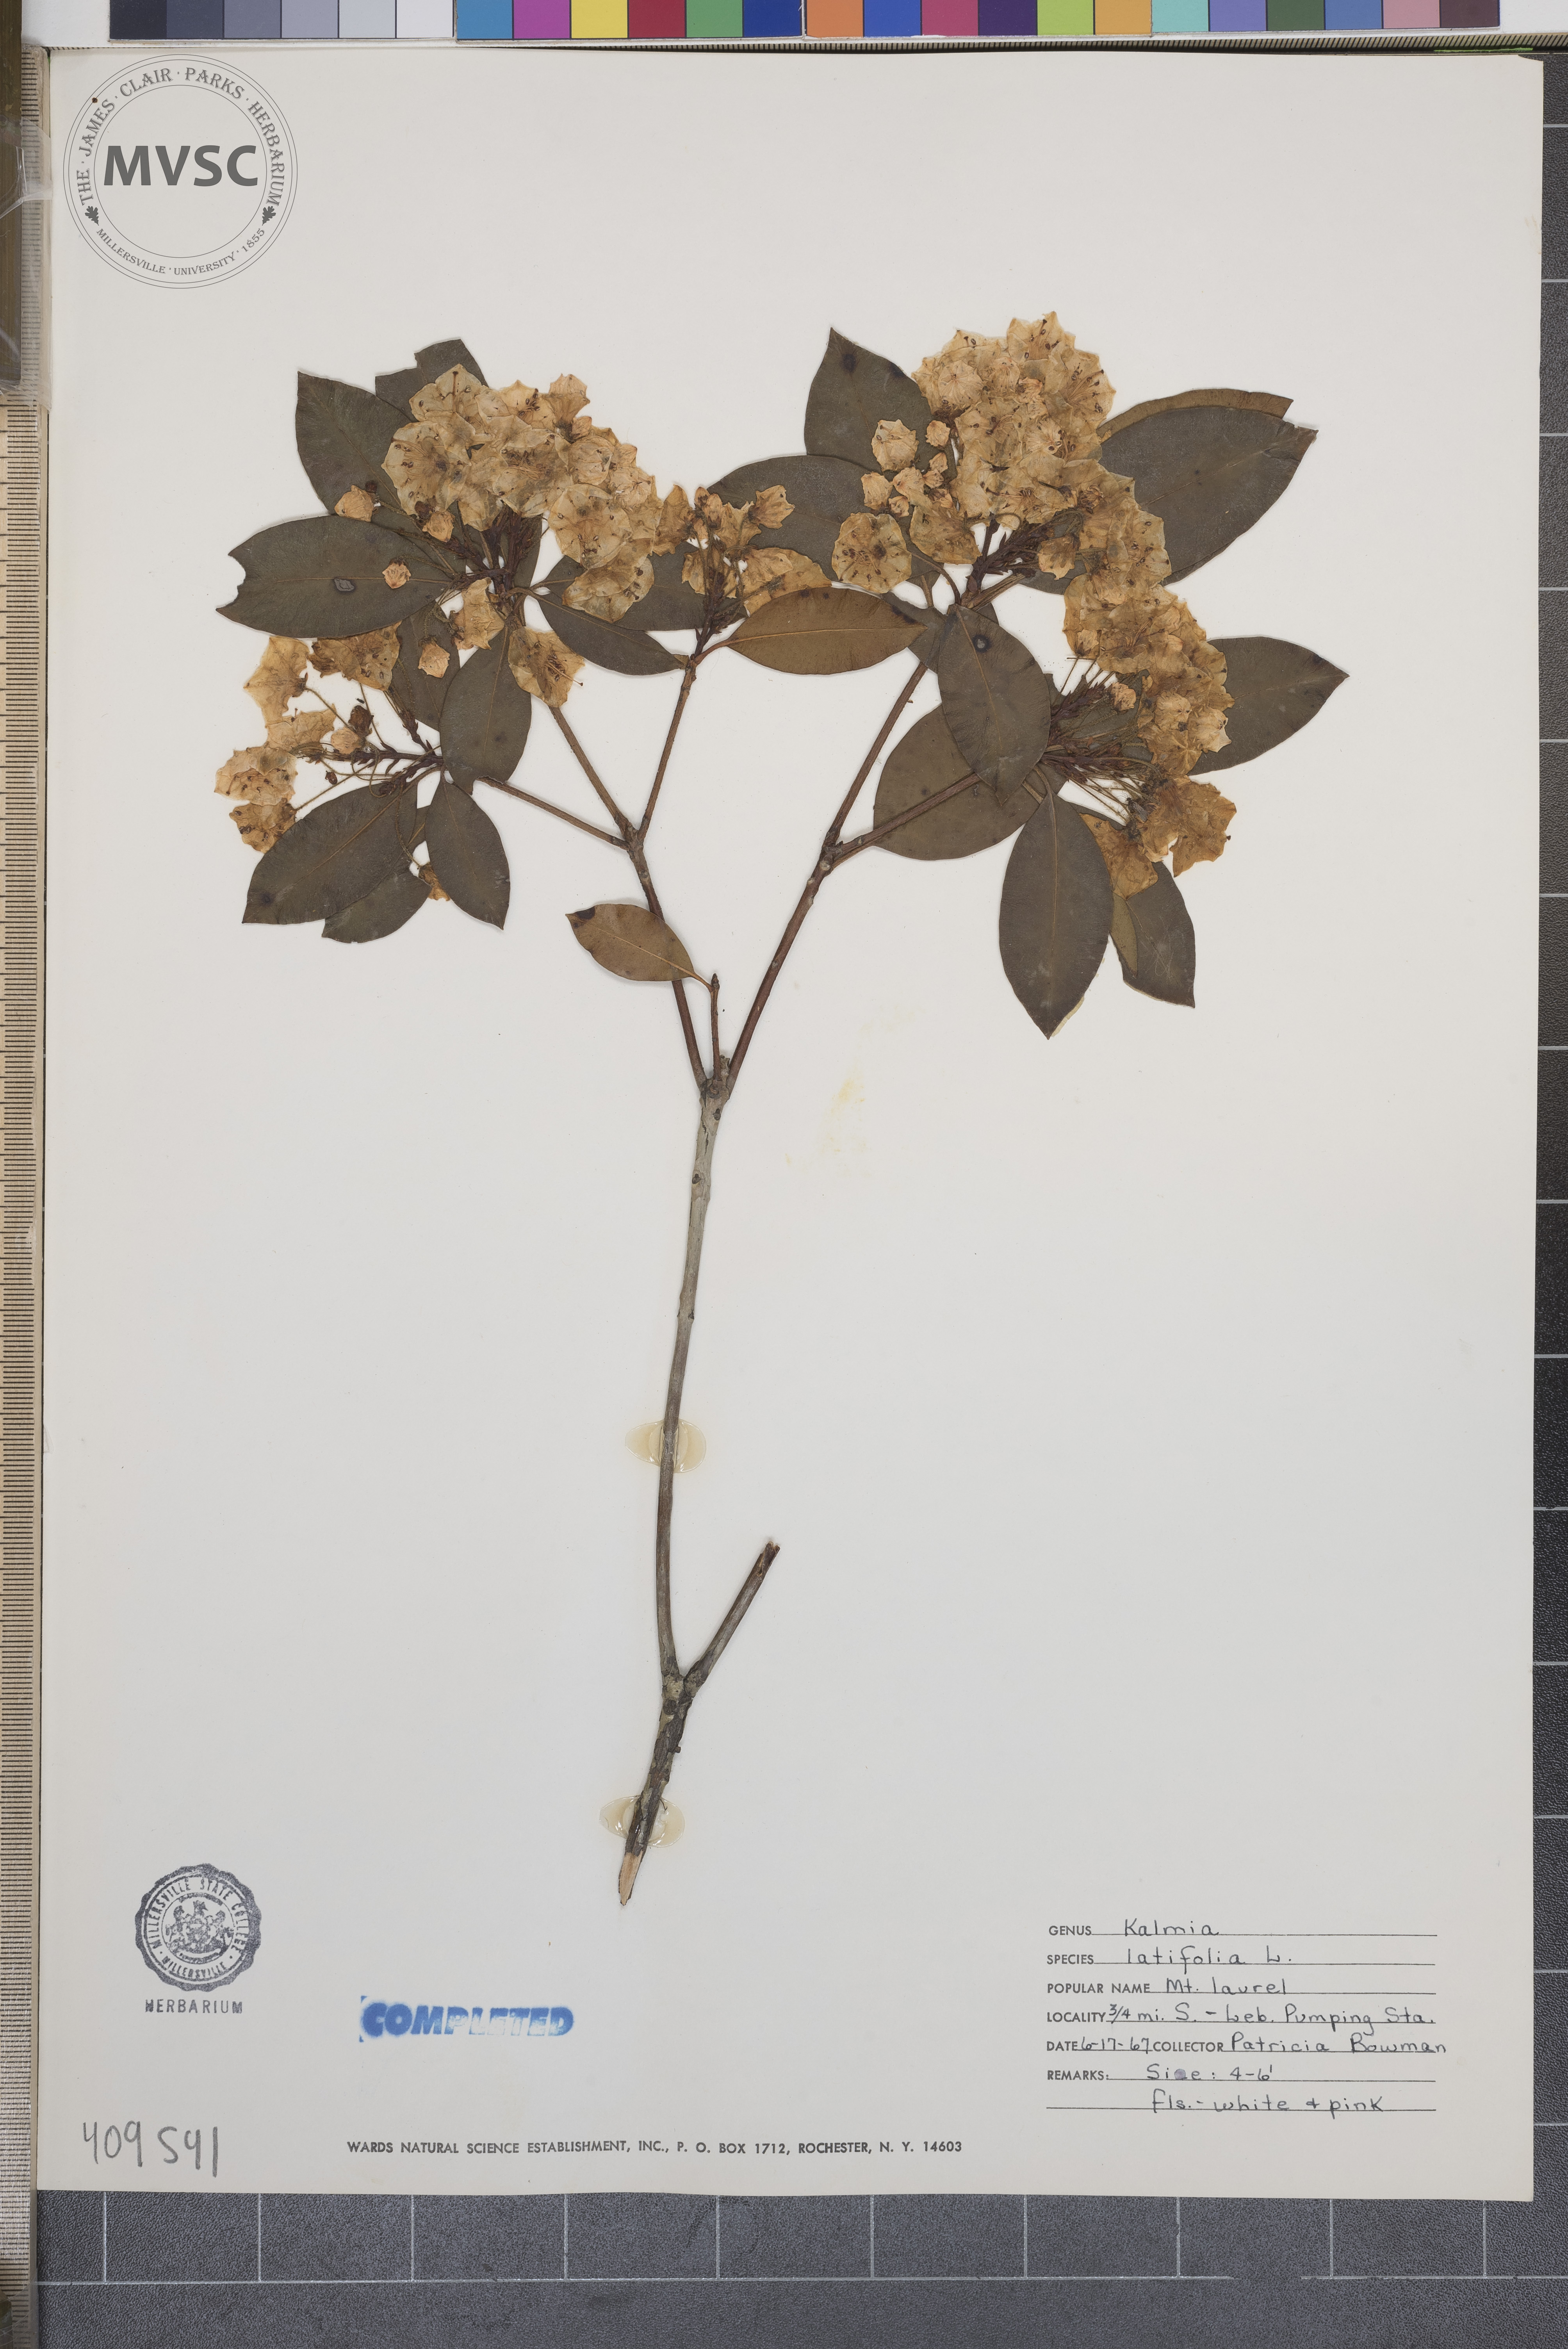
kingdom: Plantae
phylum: Tracheophyta
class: Magnoliopsida
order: Ericales
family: Ericaceae
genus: Kalmia
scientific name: Kalmia latifolia
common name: Mountain-laurel
